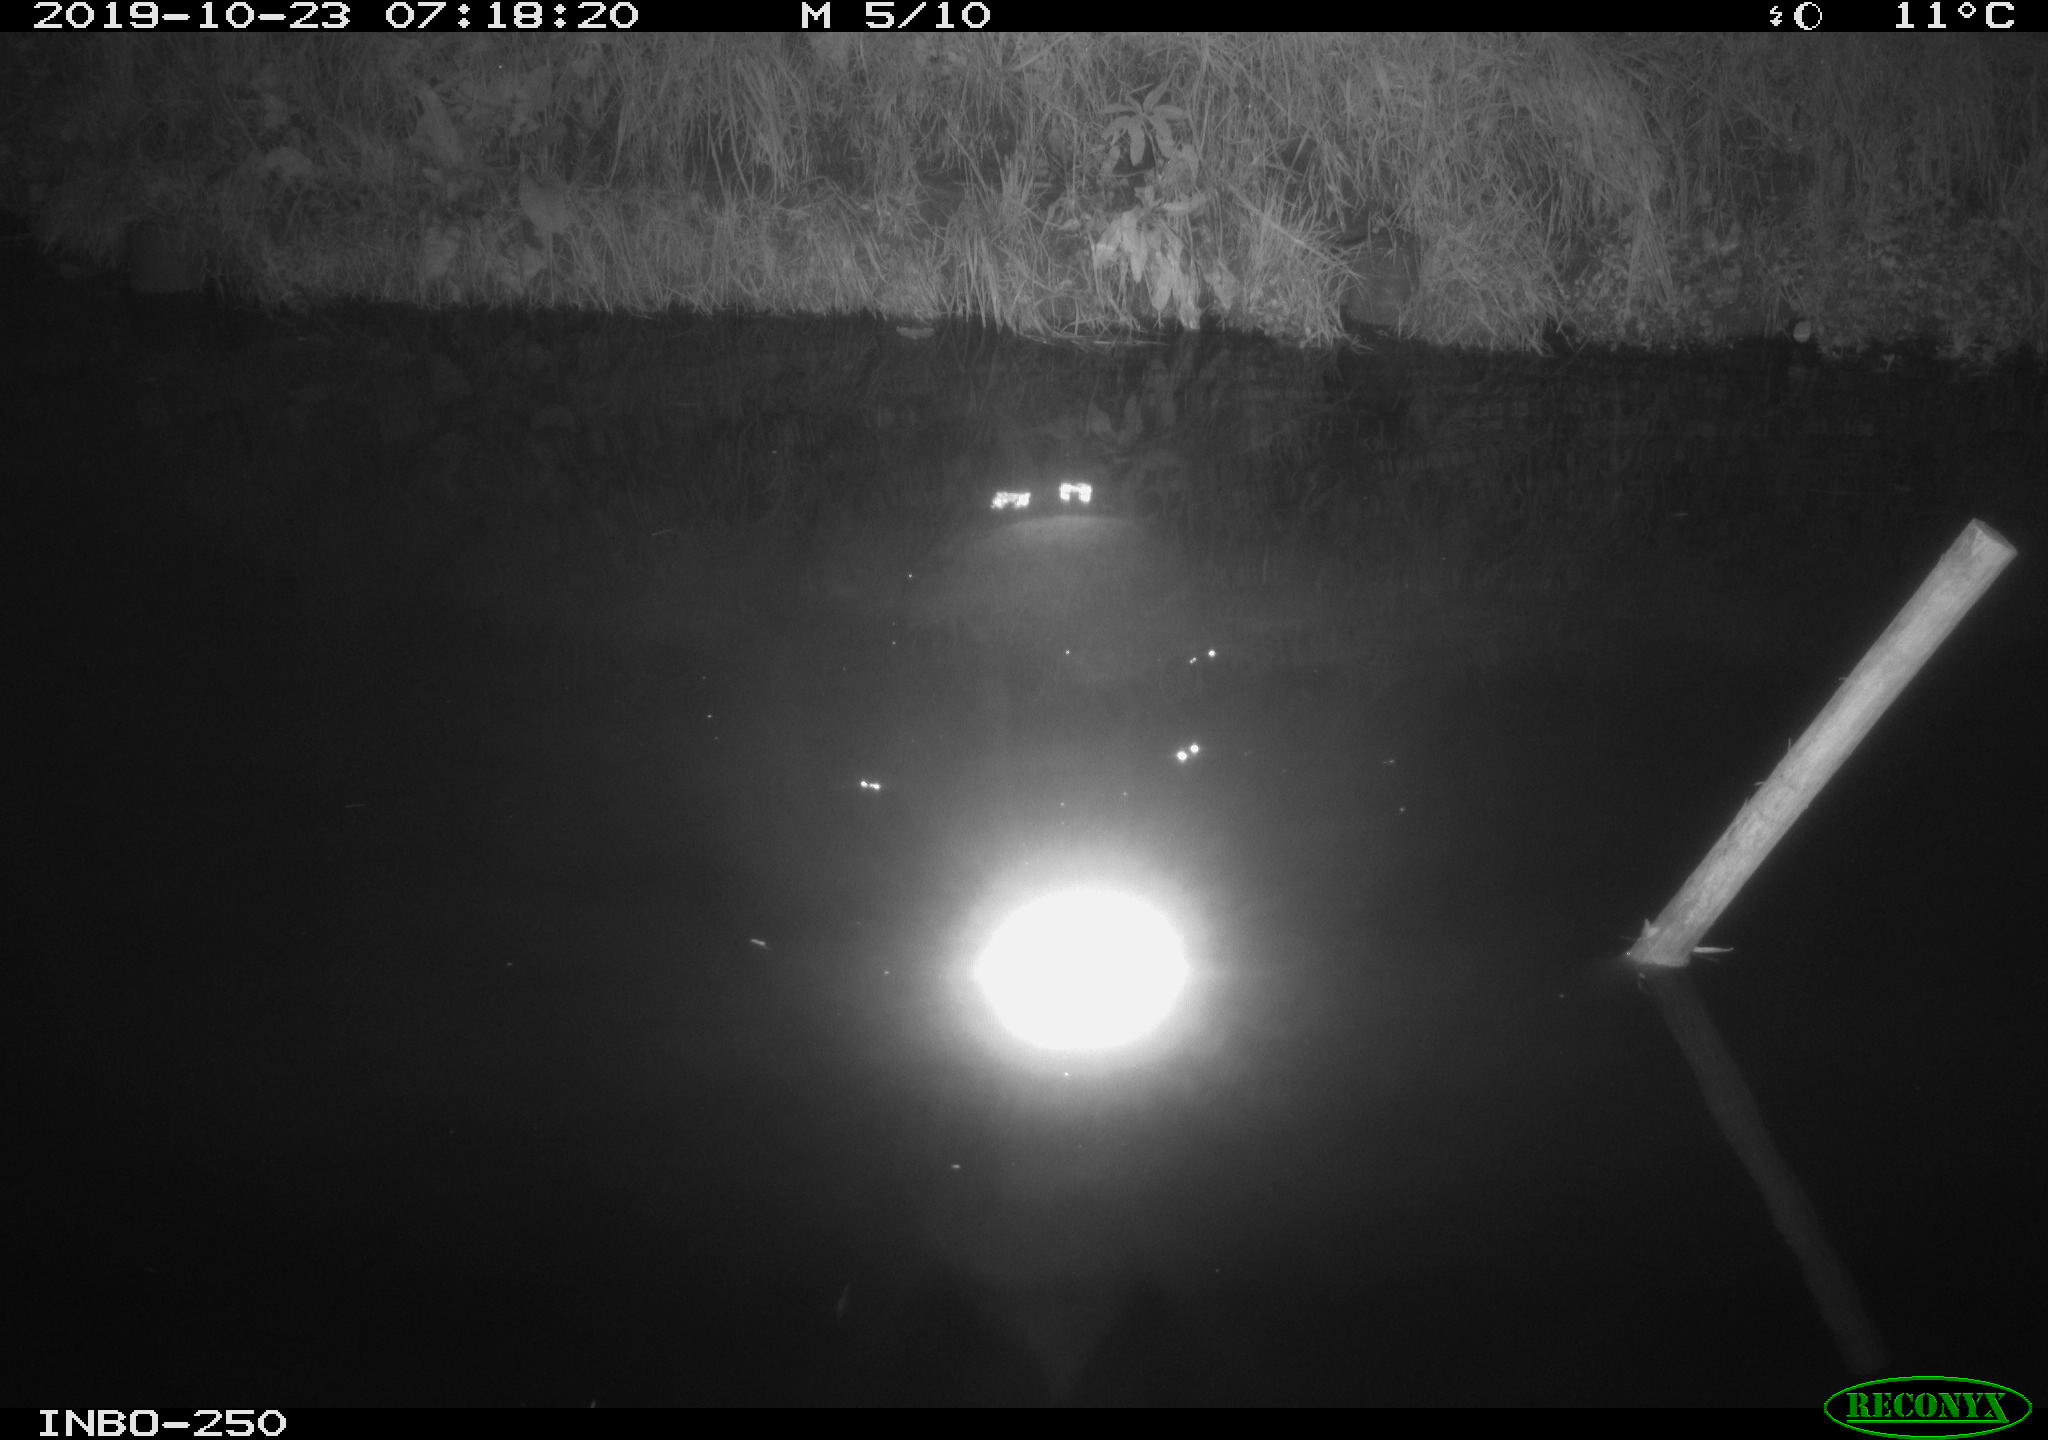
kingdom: Animalia
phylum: Chordata
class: Aves
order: Anseriformes
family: Anatidae
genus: Anas
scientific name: Anas platyrhynchos
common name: Mallard
